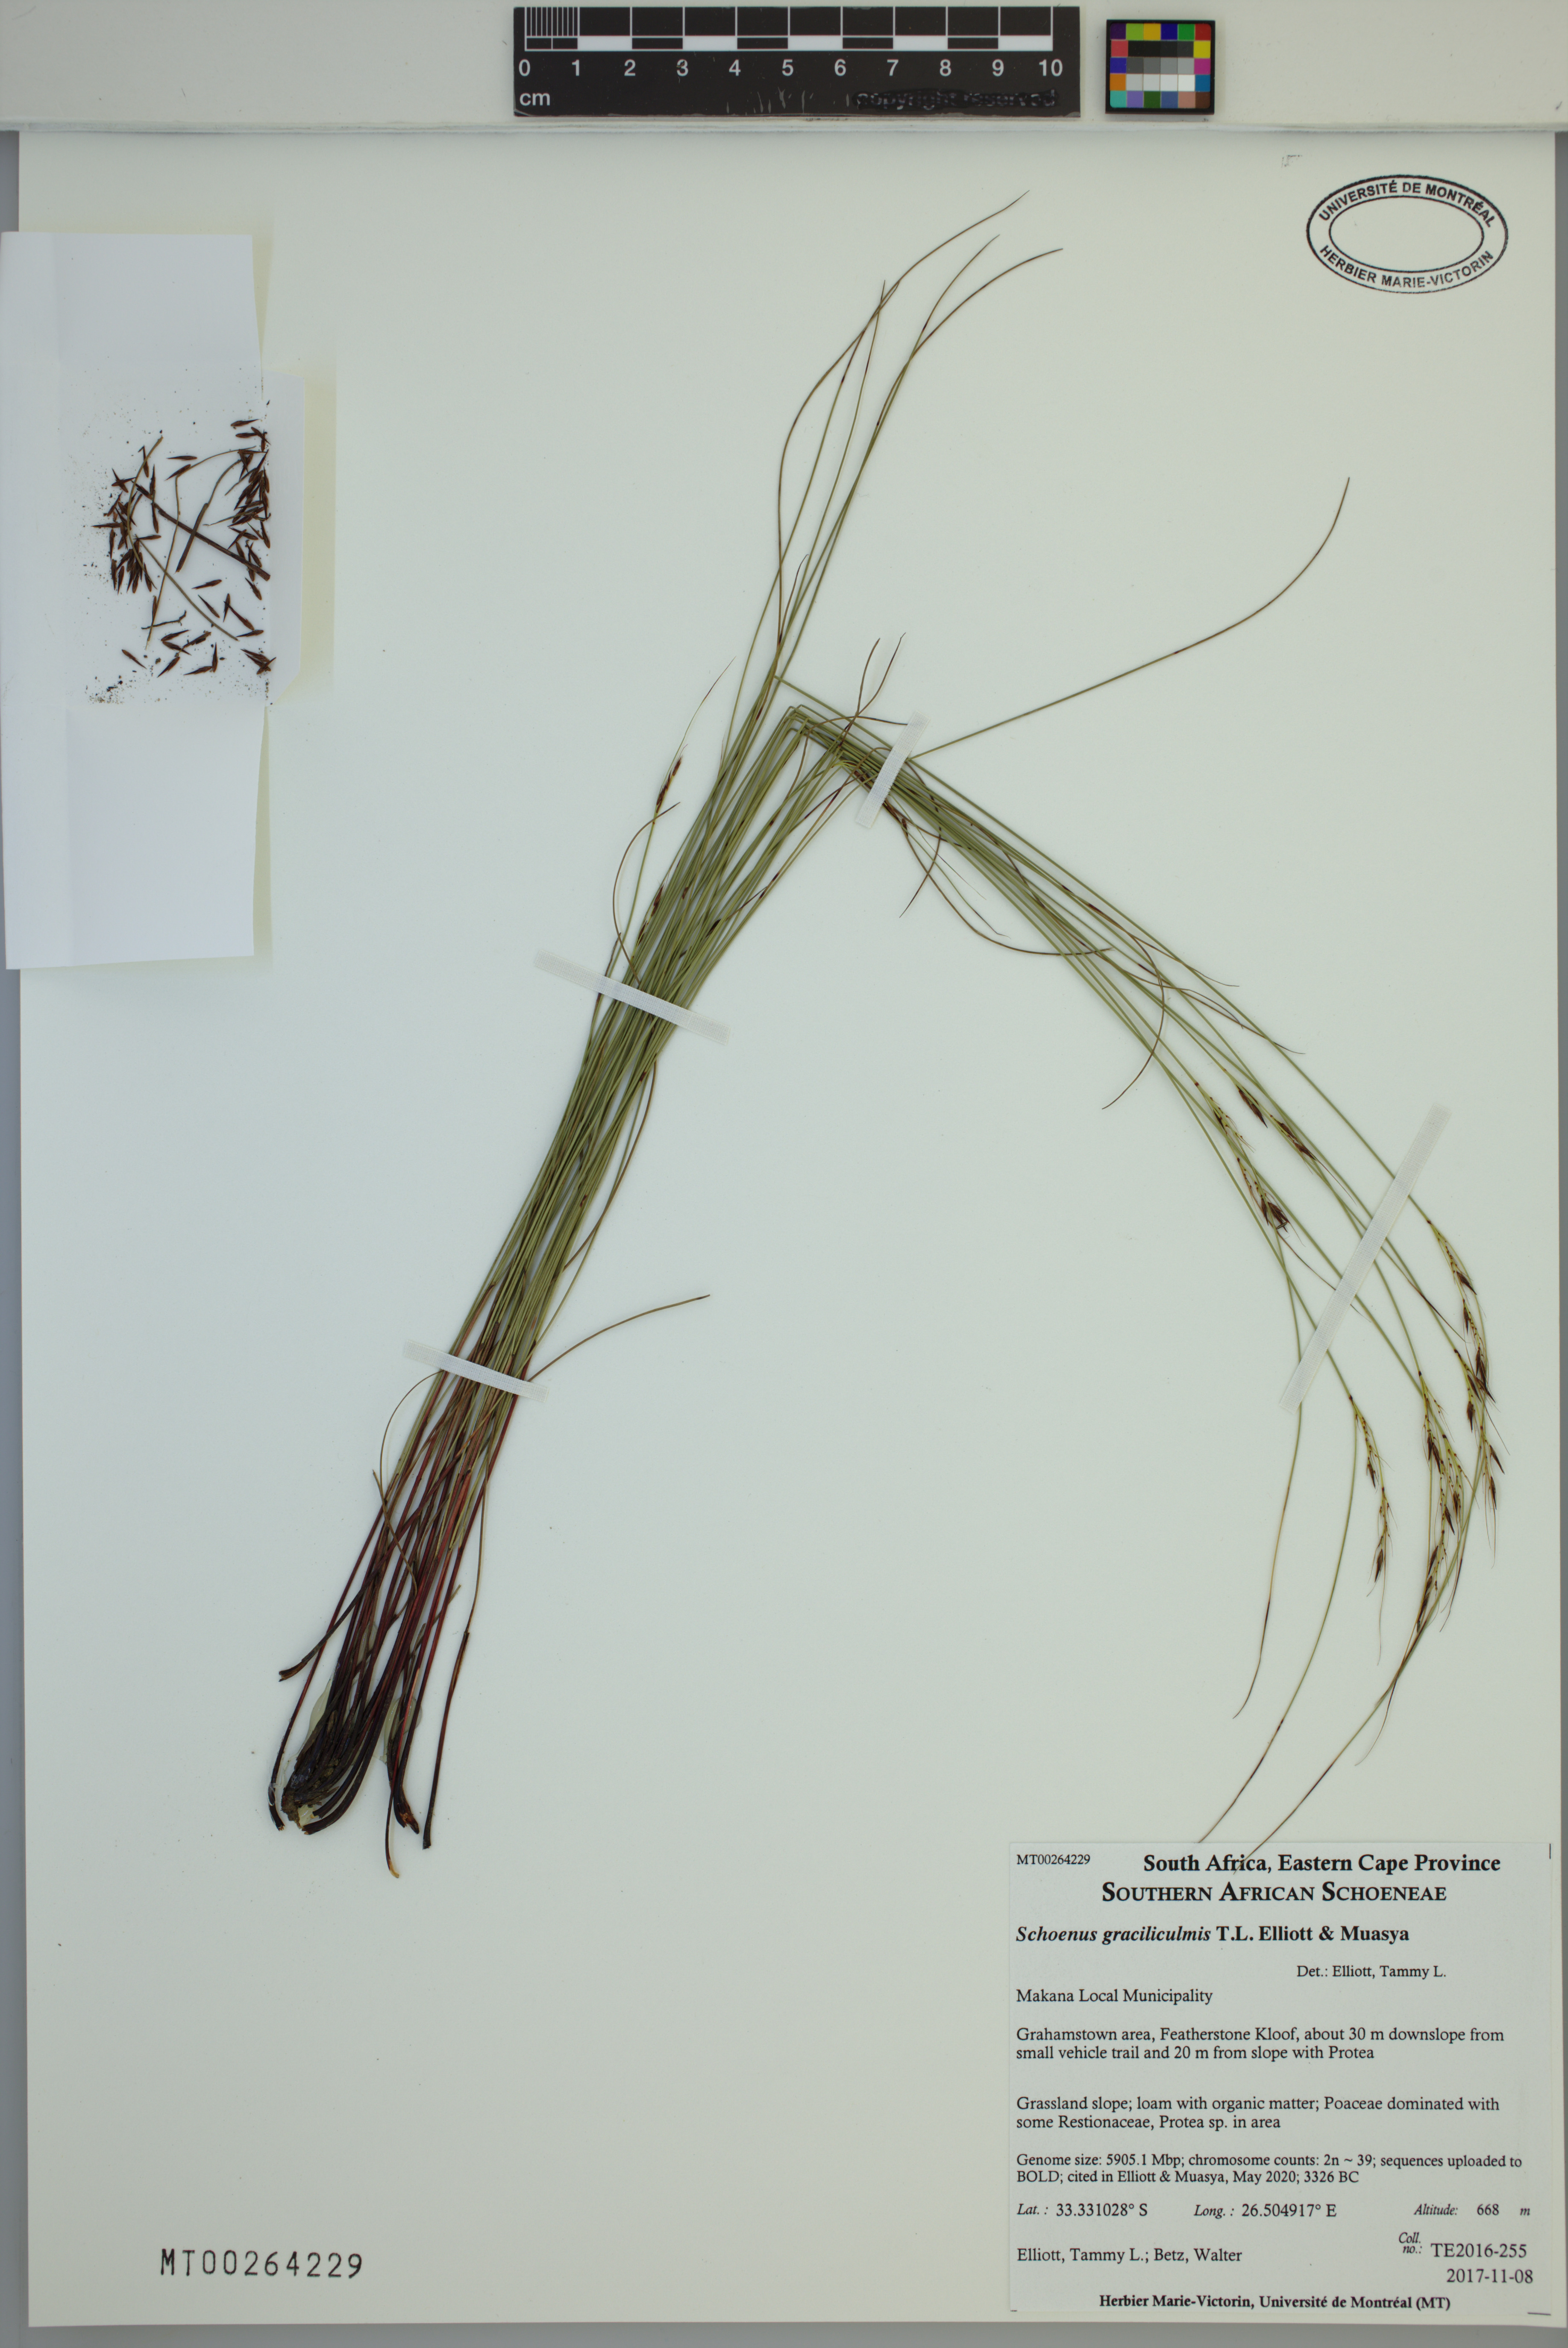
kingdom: Plantae
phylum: Tracheophyta
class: Liliopsida
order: Poales
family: Cyperaceae
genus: Schoenus
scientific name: Schoenus graciliculmis
